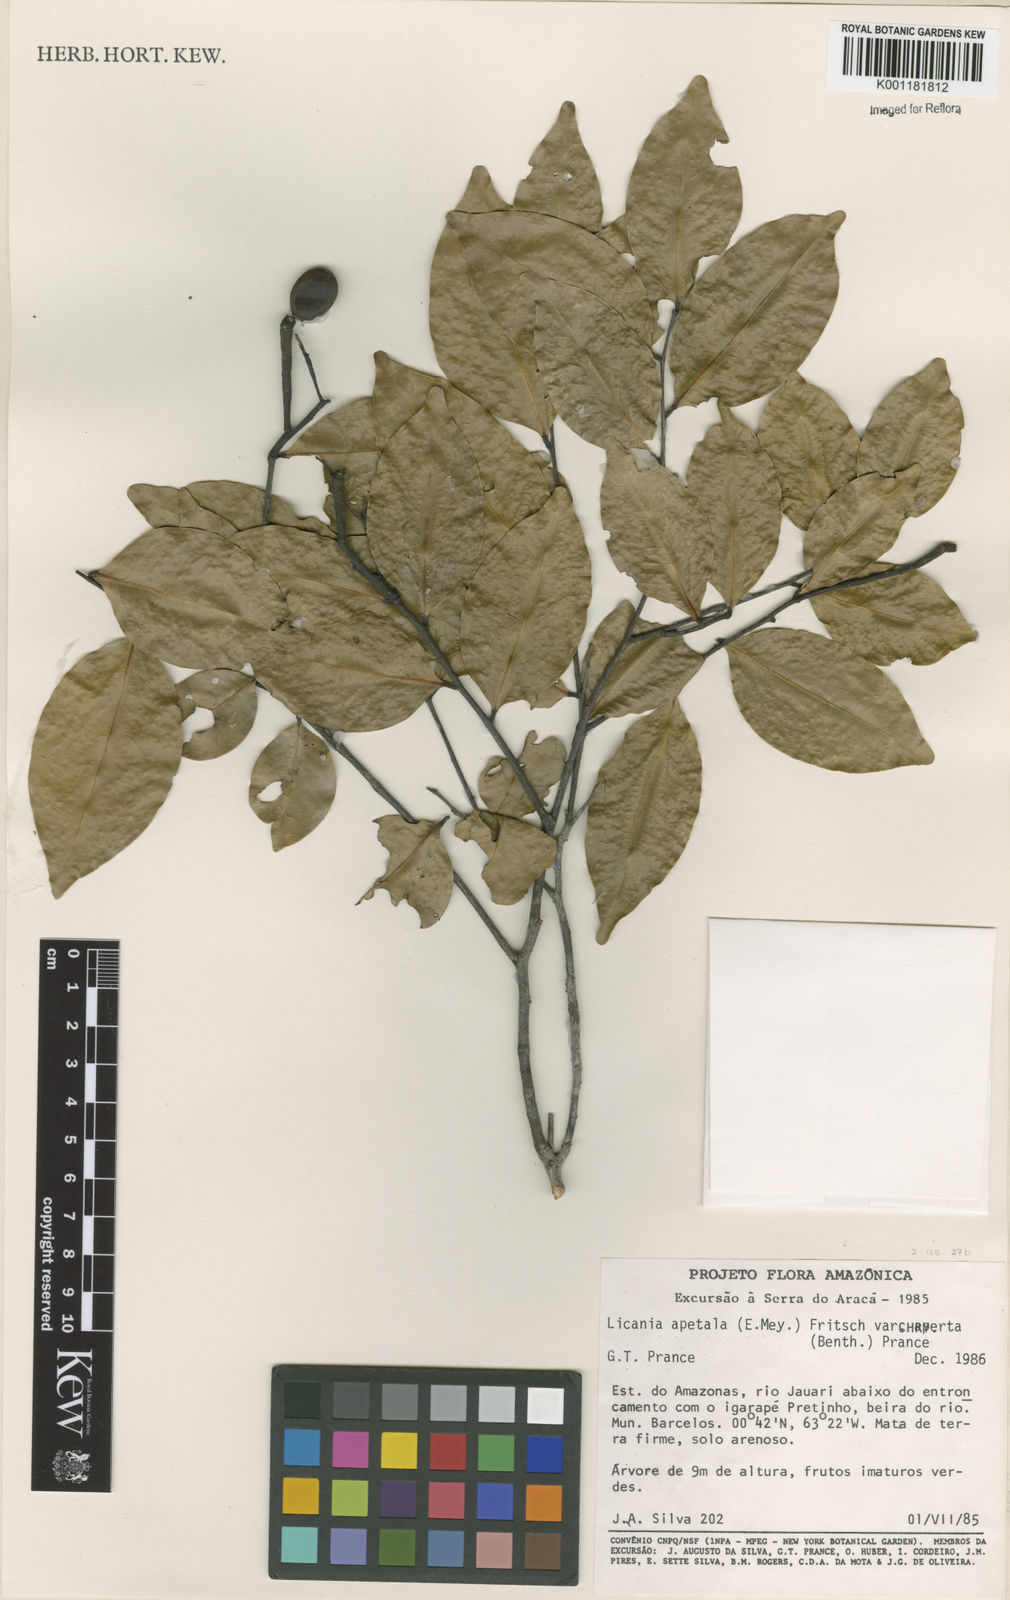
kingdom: Plantae
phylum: Tracheophyta
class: Magnoliopsida
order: Malpighiales
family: Chrysobalanaceae
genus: Leptobalanus
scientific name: Leptobalanus apetalus
